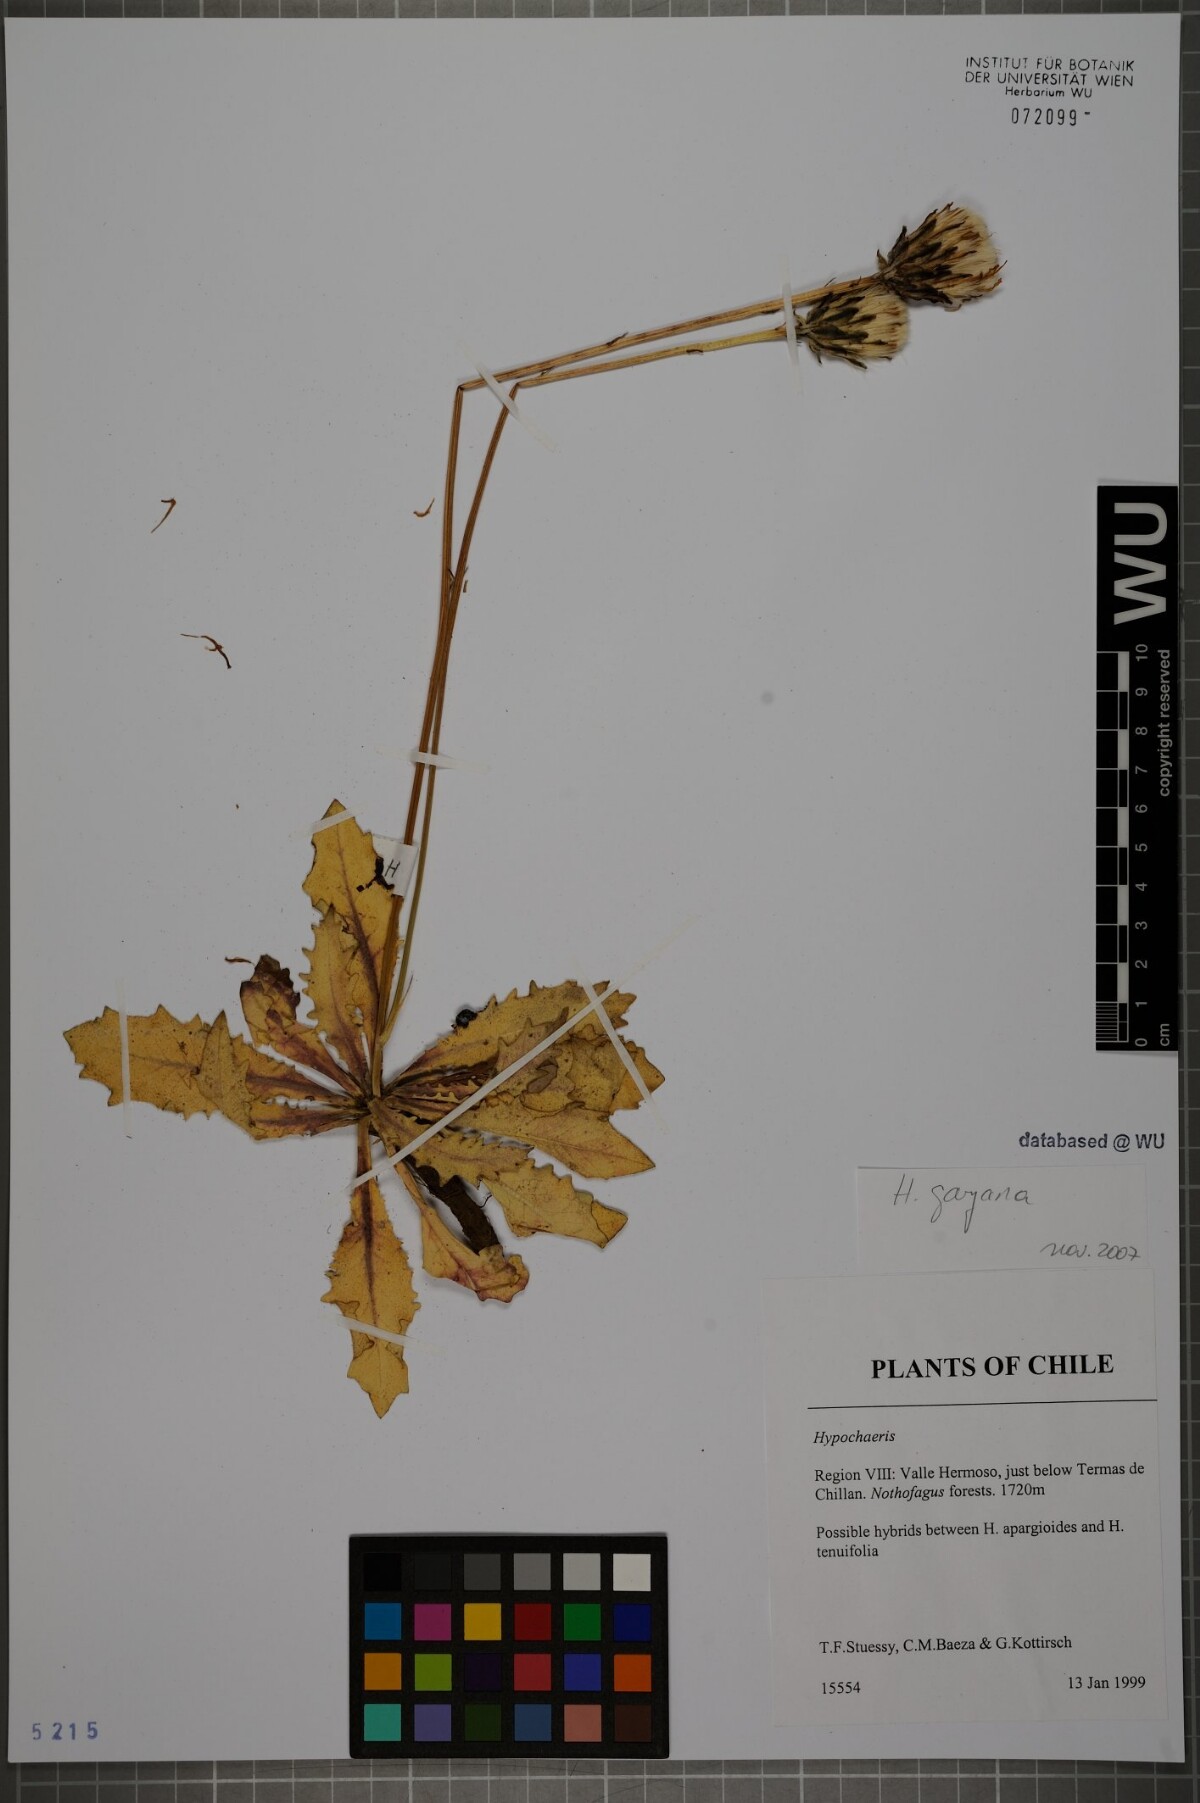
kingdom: Plantae
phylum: Tracheophyta
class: Magnoliopsida
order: Asterales
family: Asteraceae
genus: Hypochaeris
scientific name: Hypochaeris melanolepis
